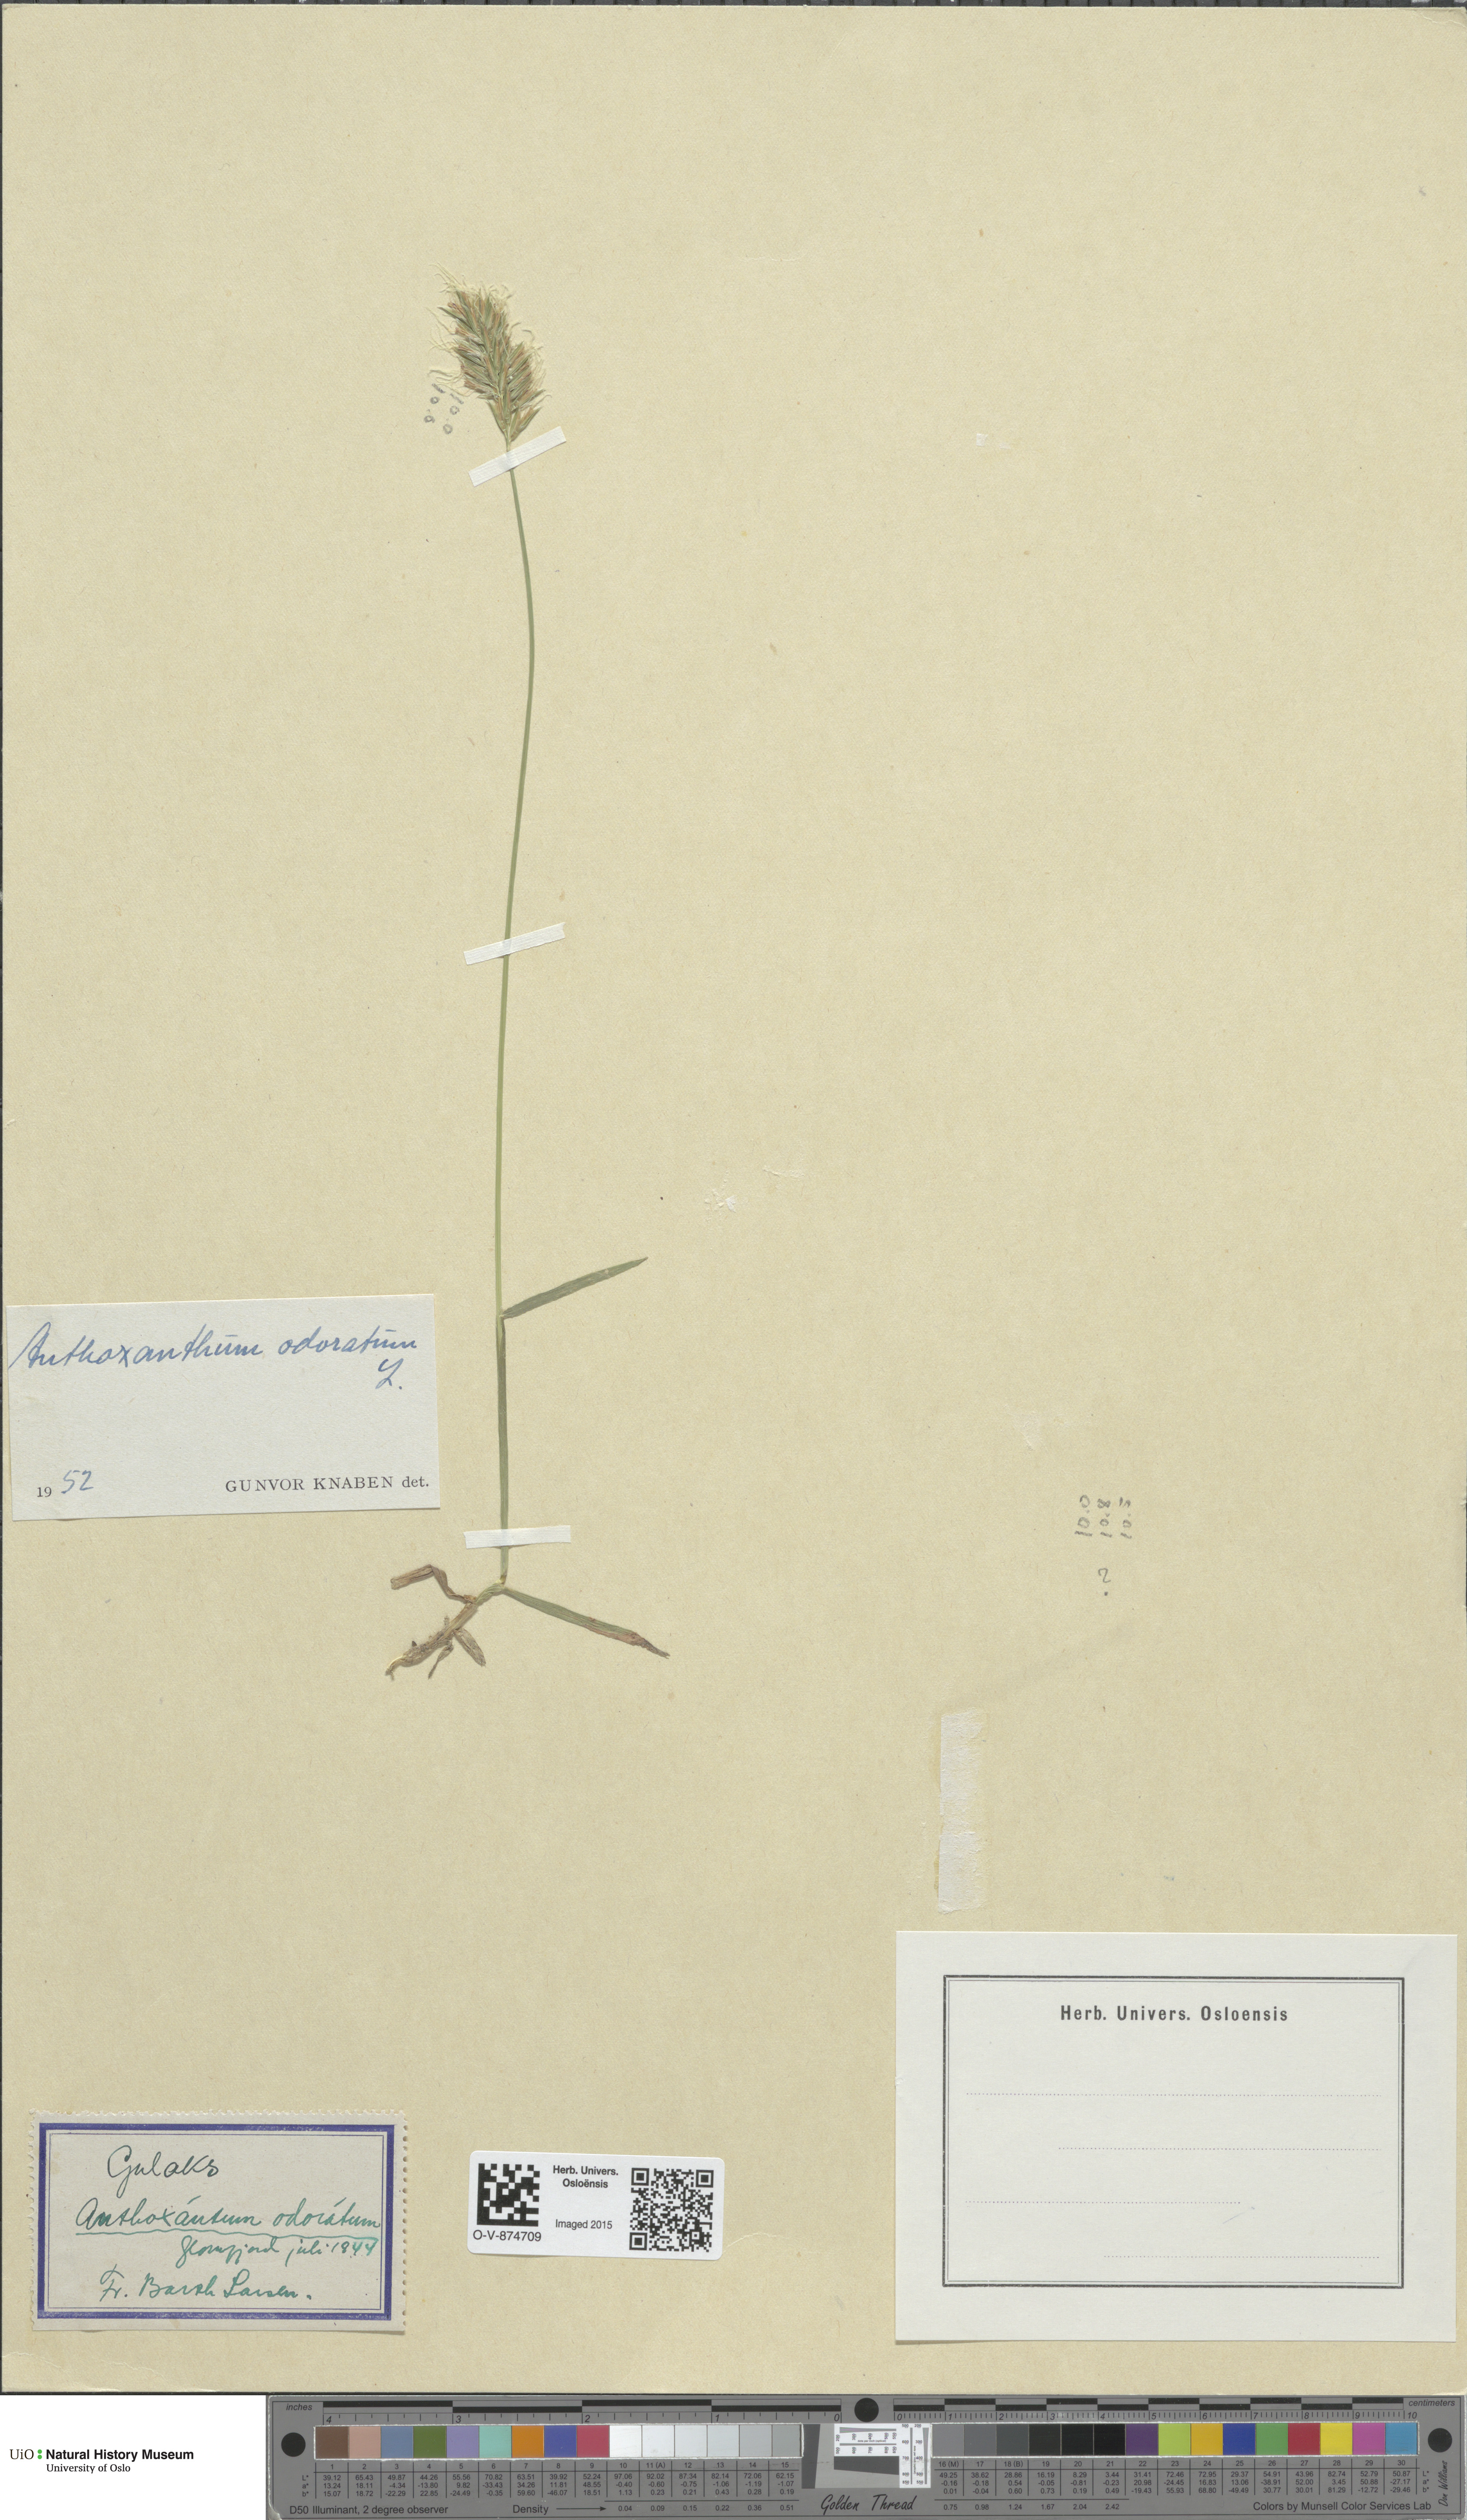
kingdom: Plantae
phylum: Tracheophyta
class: Magnoliopsida
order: Brassicales
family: Brassicaceae
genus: Boechera
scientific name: Boechera divaricarpa
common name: Divaricate rockcress
